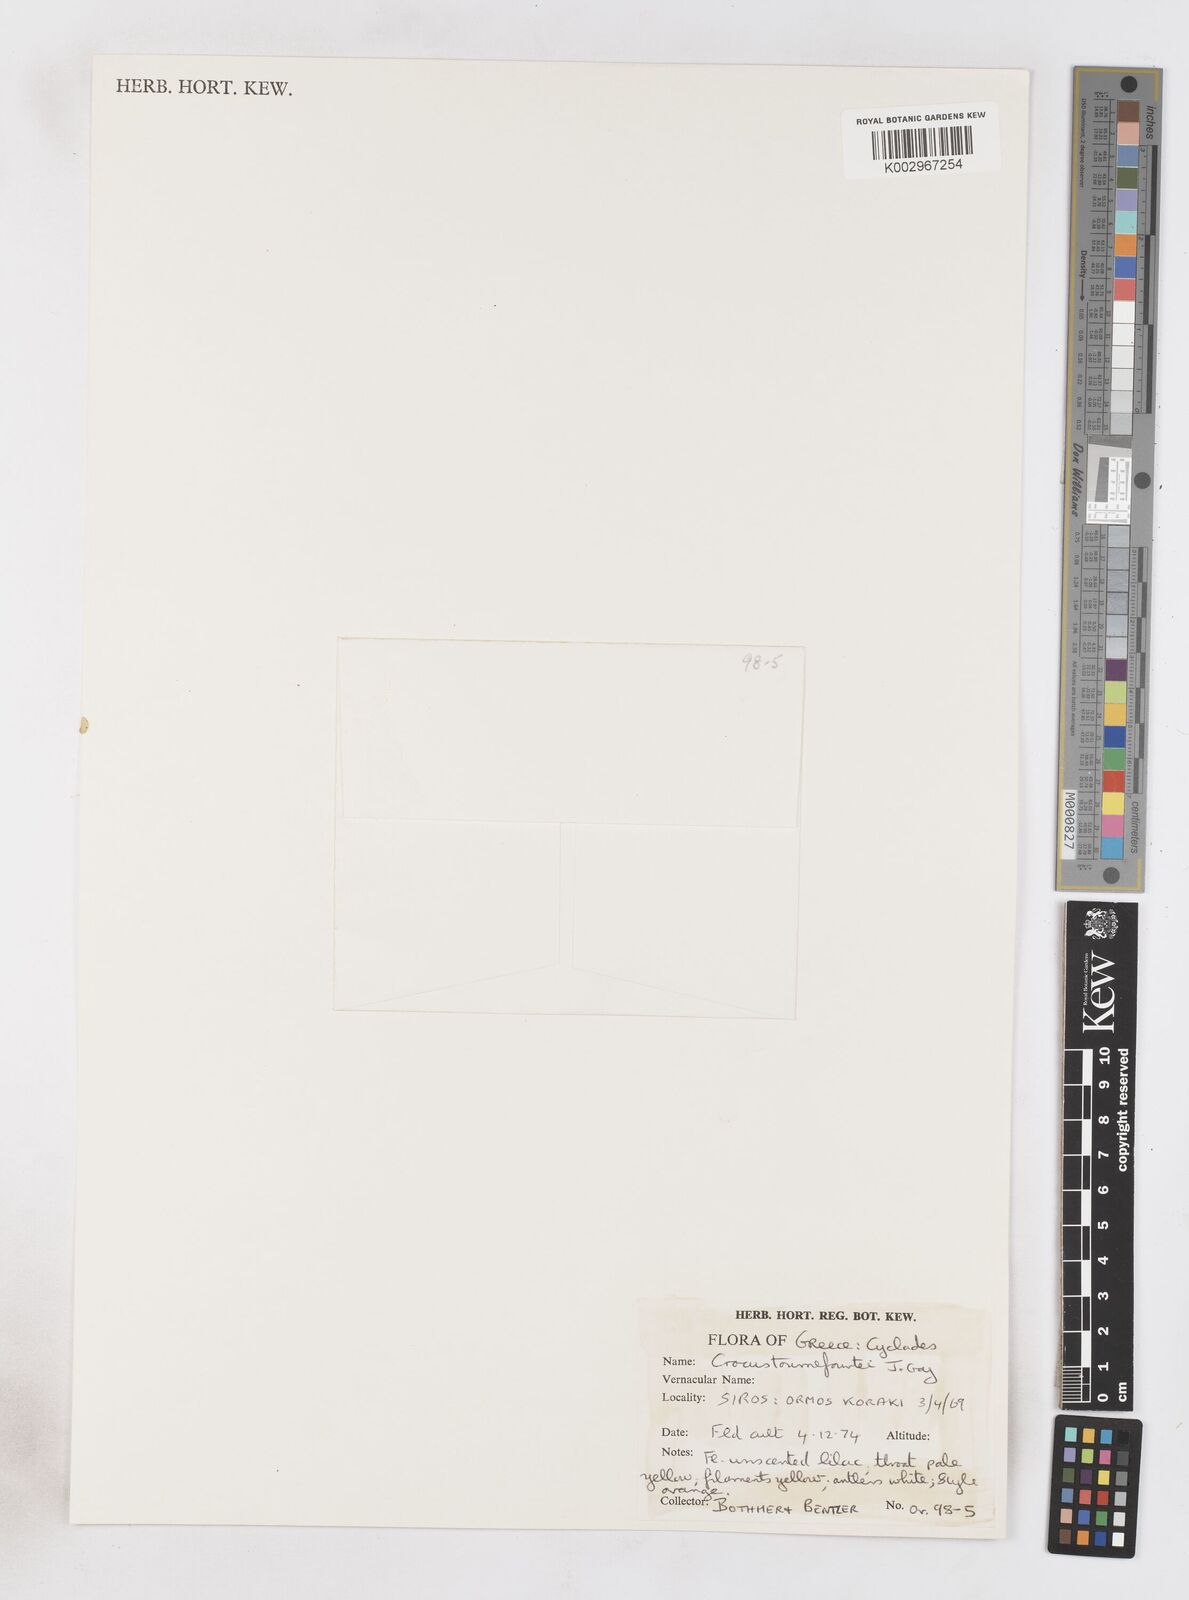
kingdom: Plantae
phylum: Tracheophyta
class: Liliopsida
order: Asparagales
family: Iridaceae
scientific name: Iridaceae
